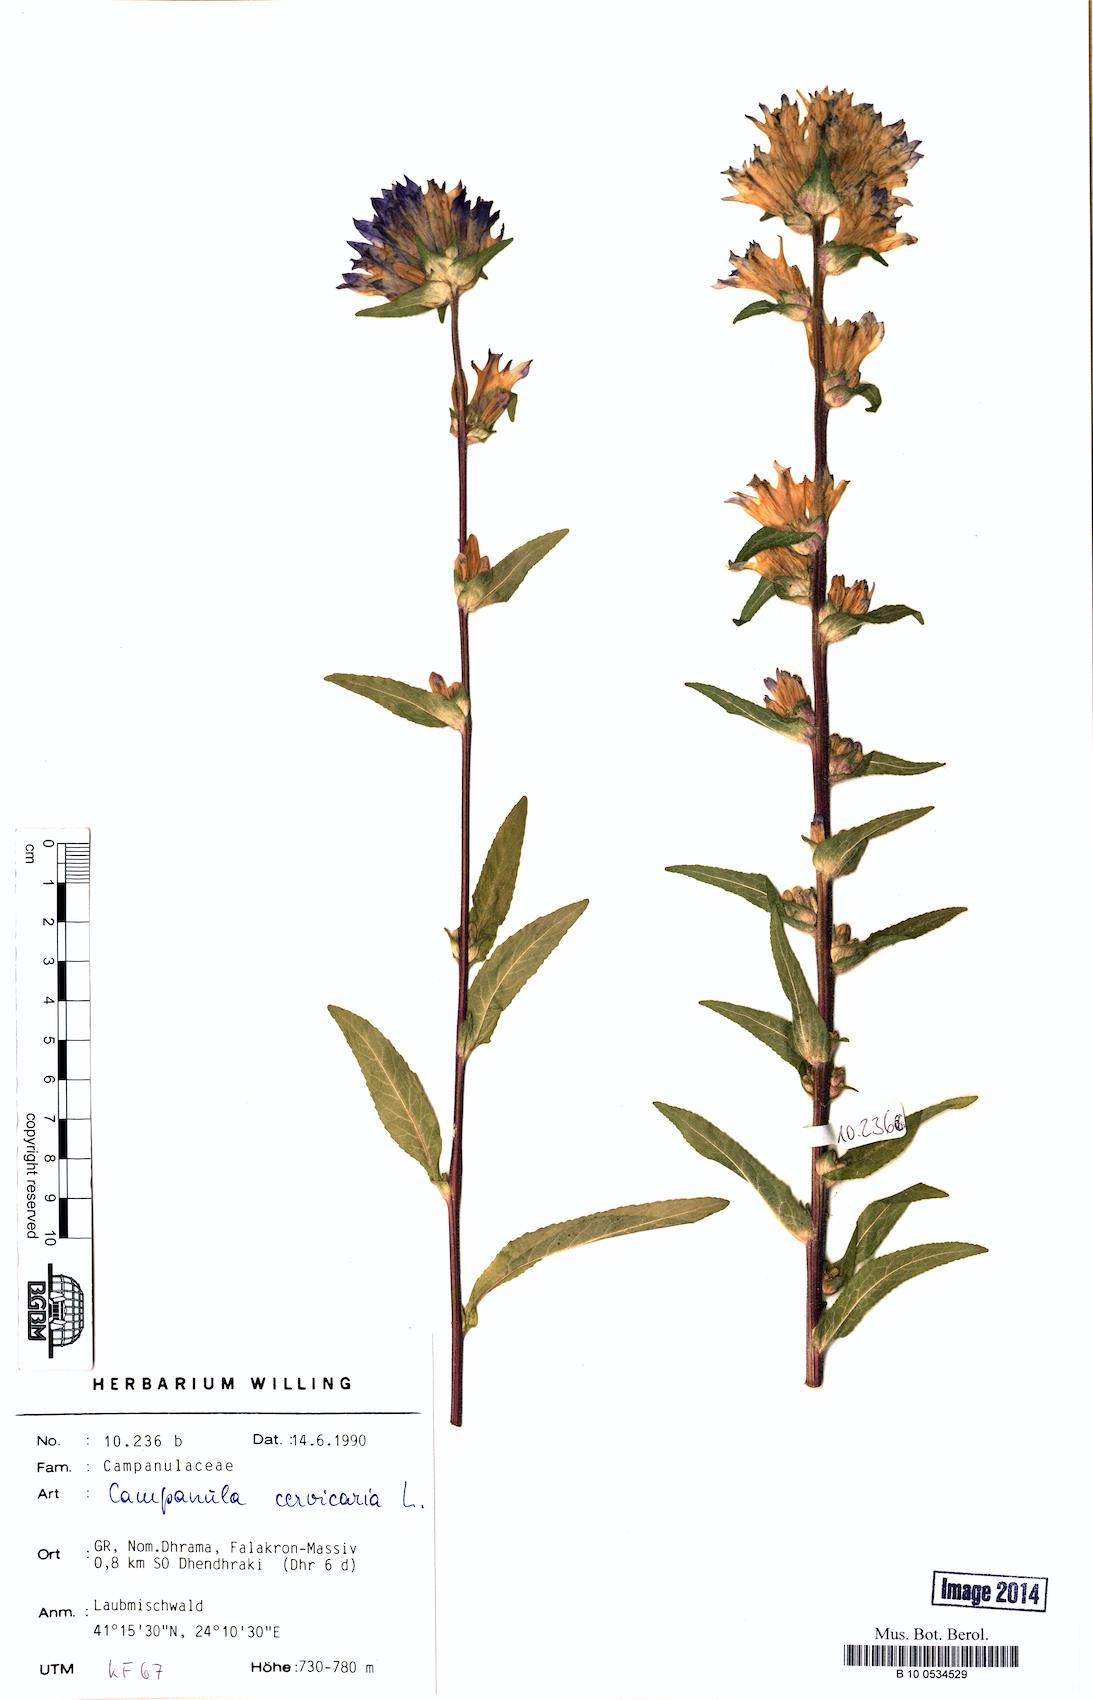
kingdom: Plantae
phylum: Tracheophyta
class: Magnoliopsida
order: Asterales
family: Campanulaceae
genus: Campanula
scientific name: Campanula cervicaria
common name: Bristly bellflower
